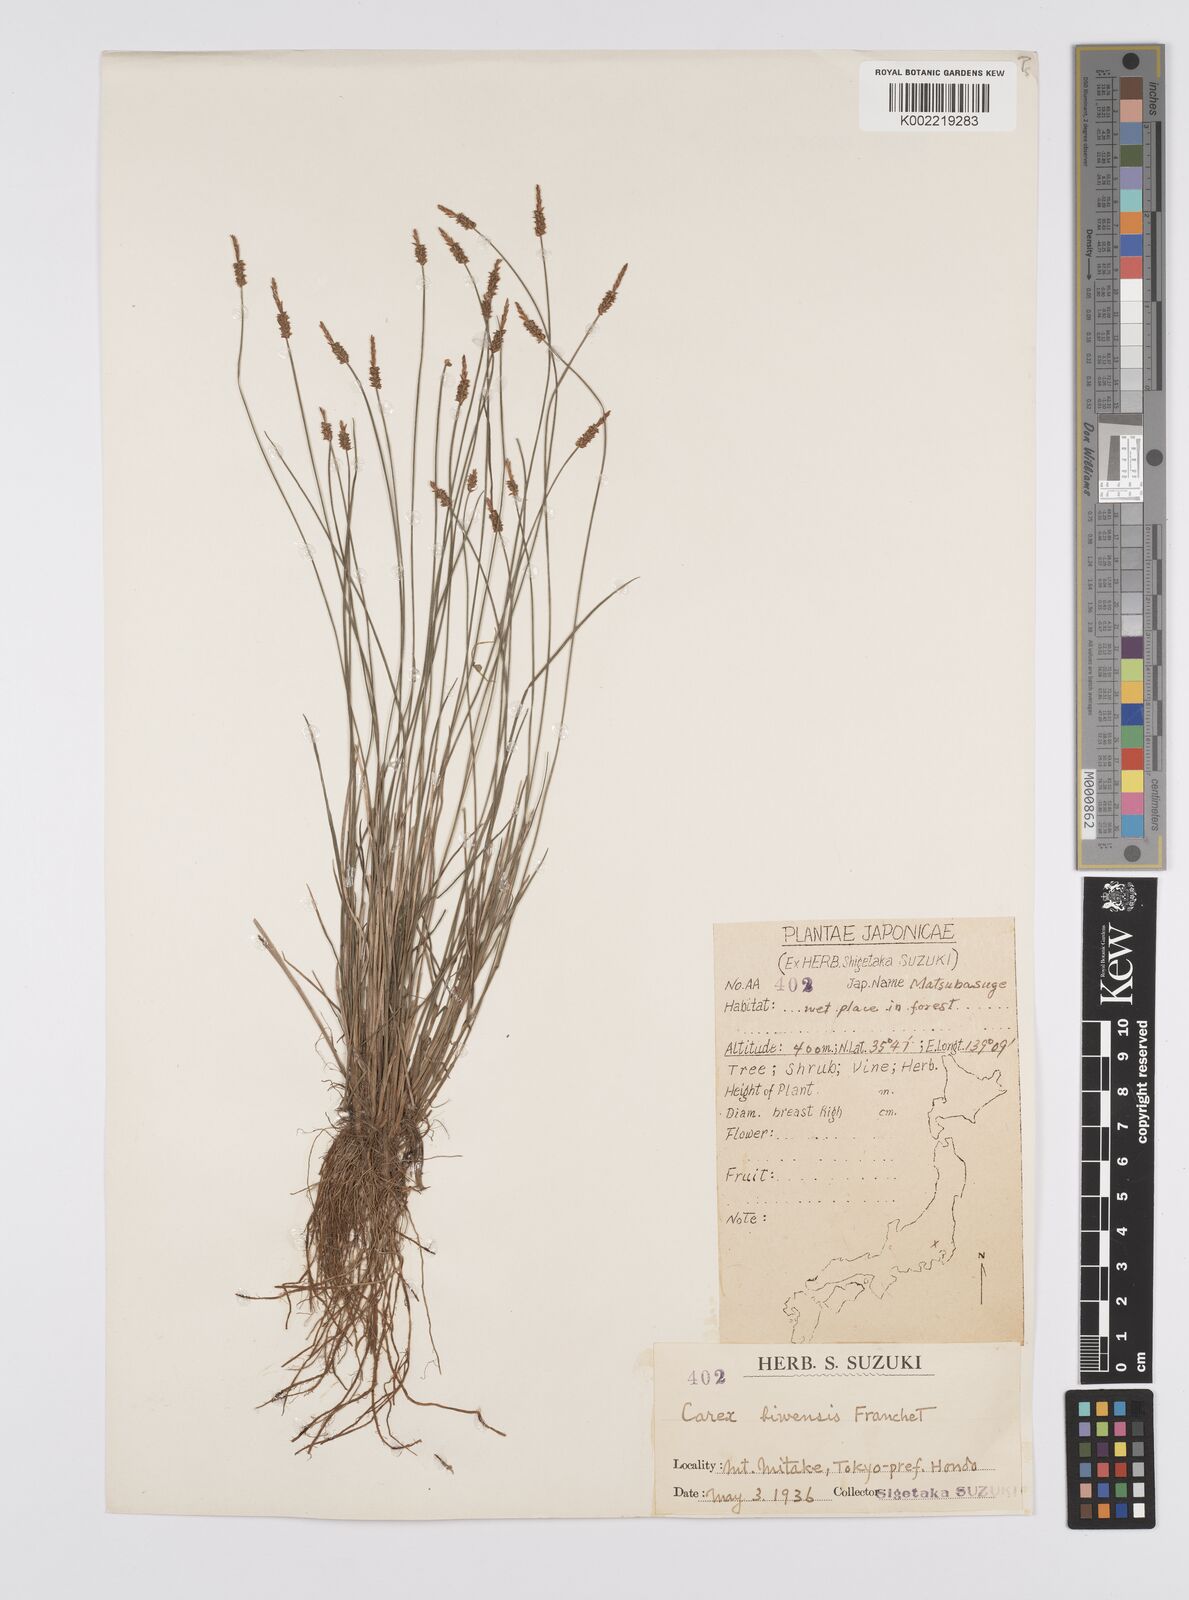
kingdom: Plantae
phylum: Tracheophyta
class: Liliopsida
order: Poales
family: Cyperaceae
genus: Carex
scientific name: Carex rara
